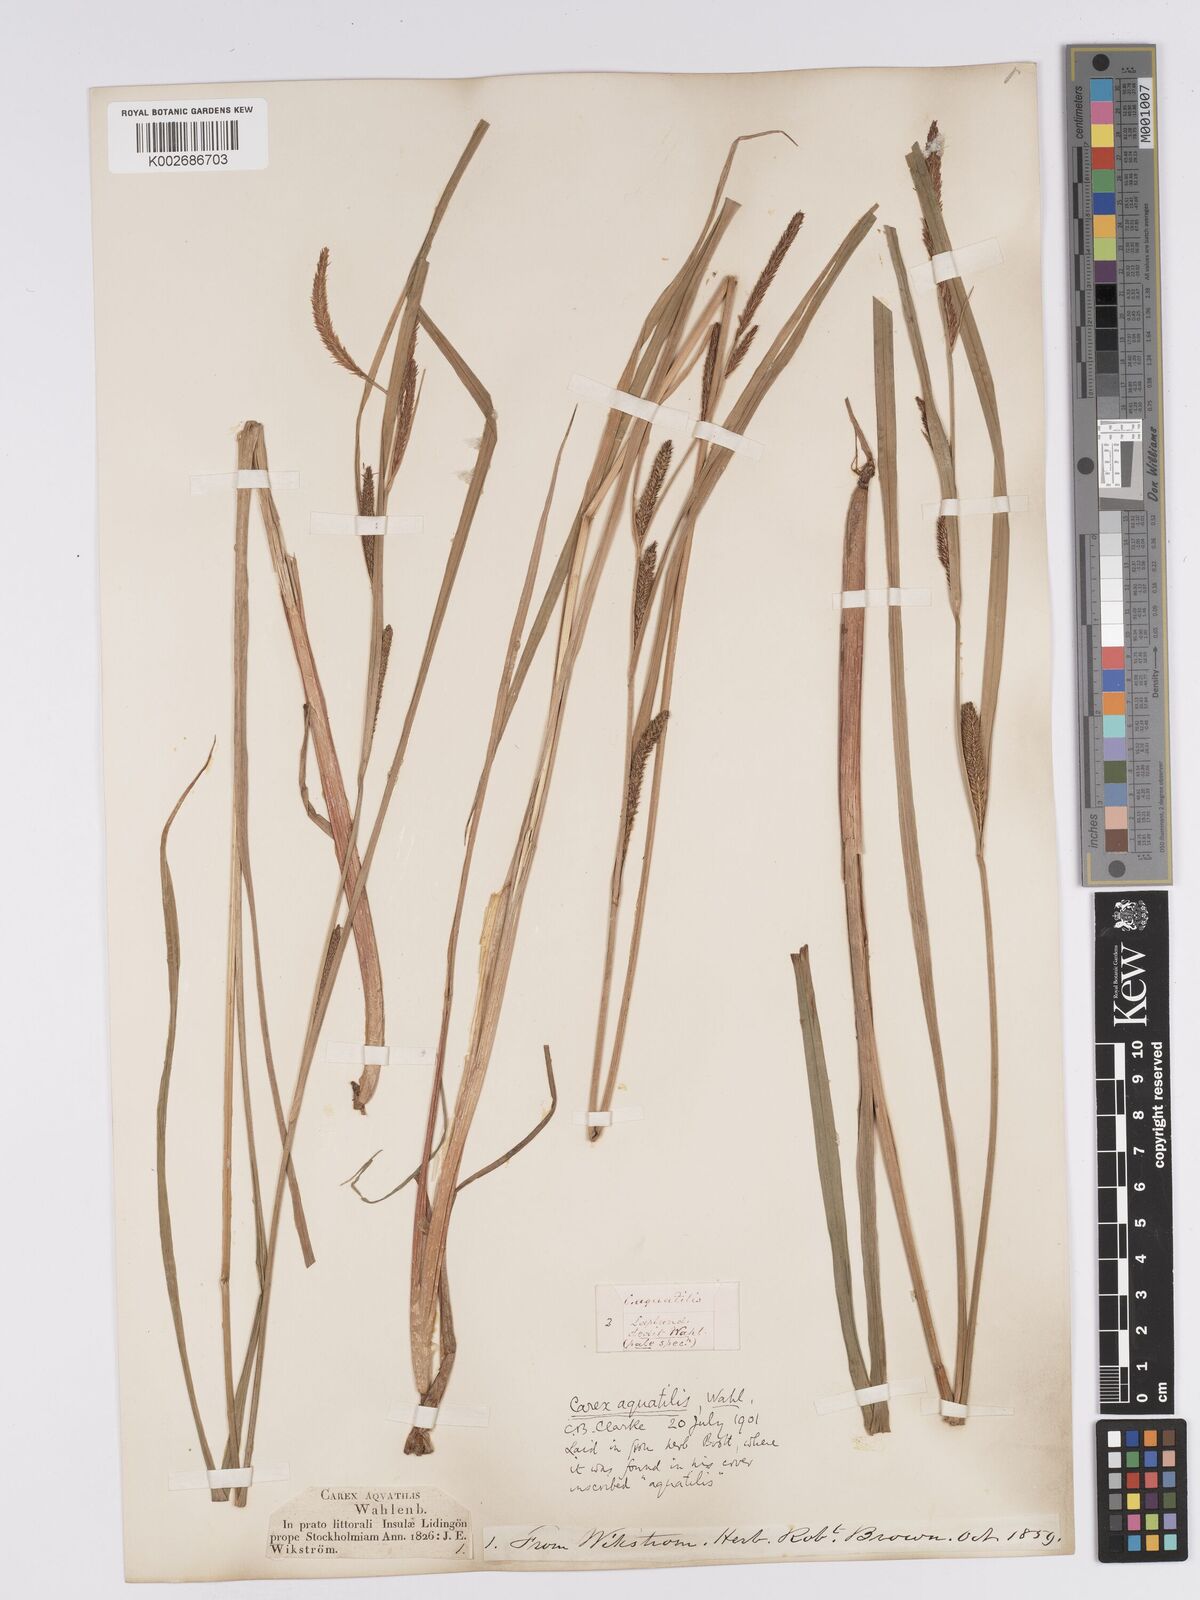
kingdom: Plantae
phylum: Tracheophyta
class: Liliopsida
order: Poales
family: Cyperaceae
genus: Carex
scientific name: Carex aquatilis
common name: Water sedge
